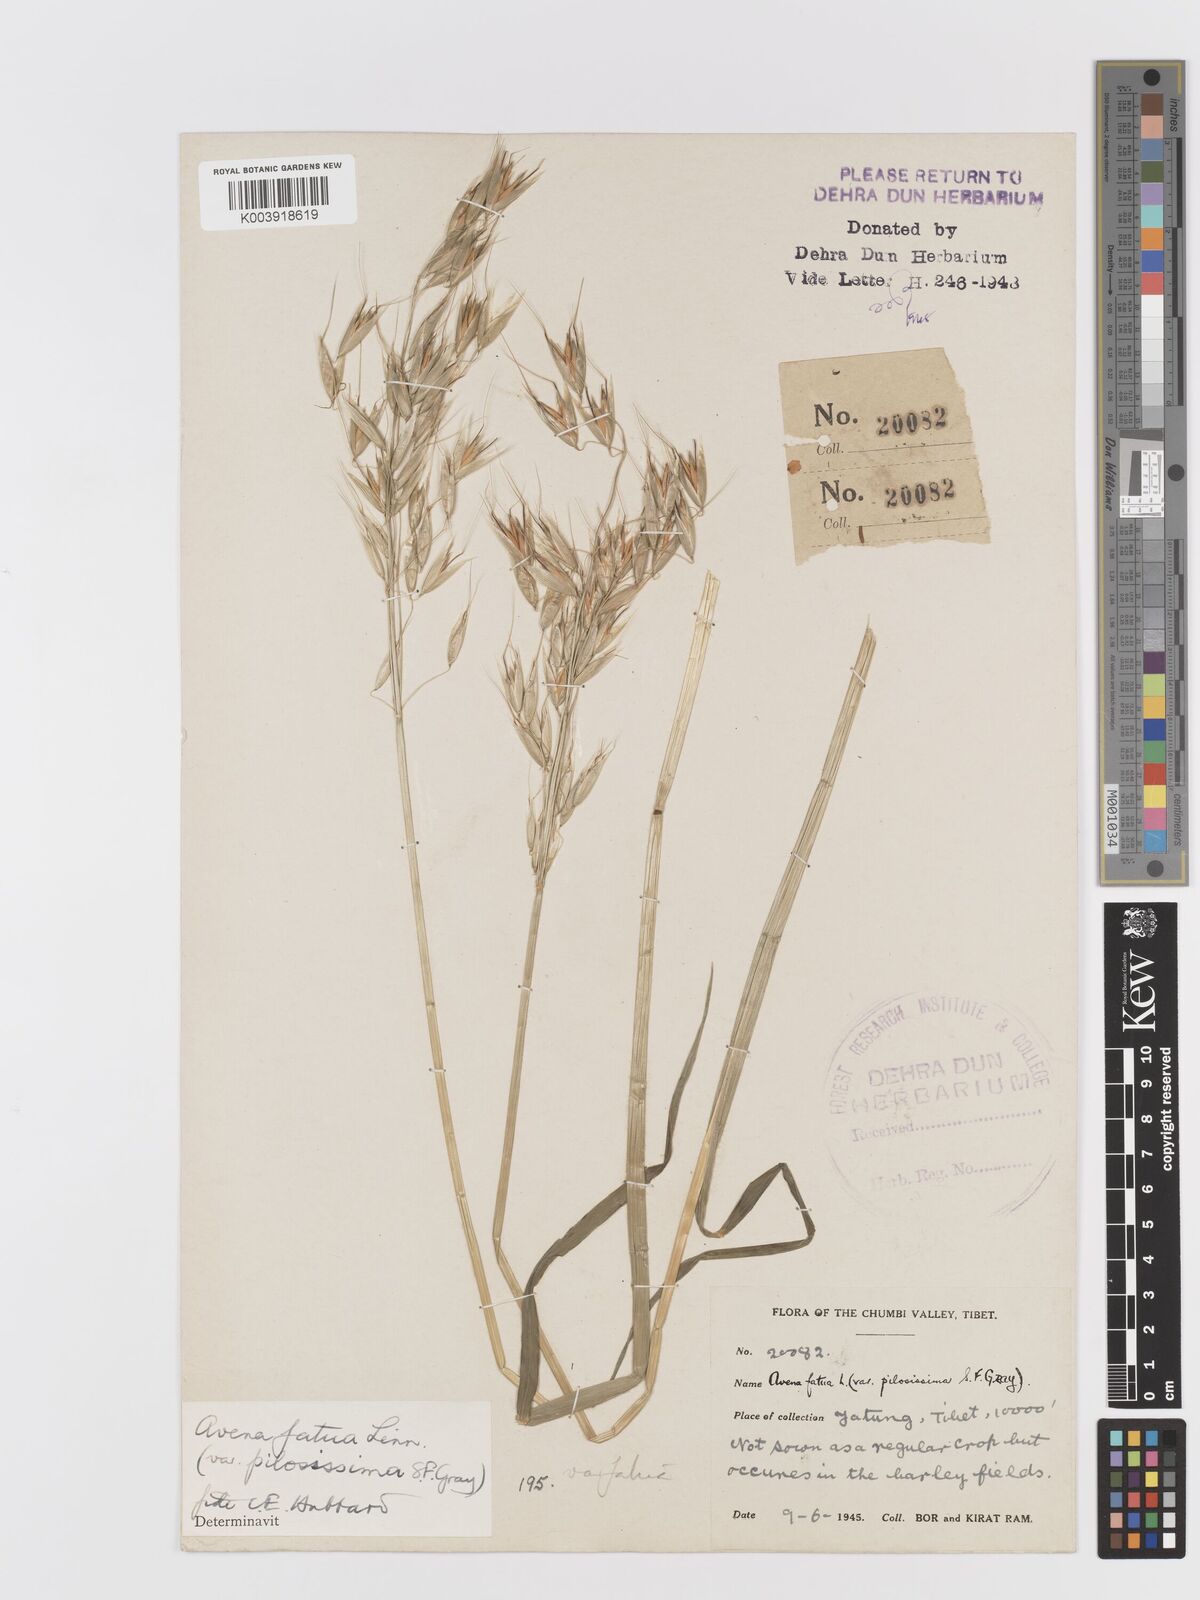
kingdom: Plantae
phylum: Tracheophyta
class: Liliopsida
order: Poales
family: Poaceae
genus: Avena
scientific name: Avena fatua
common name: Wild oat
